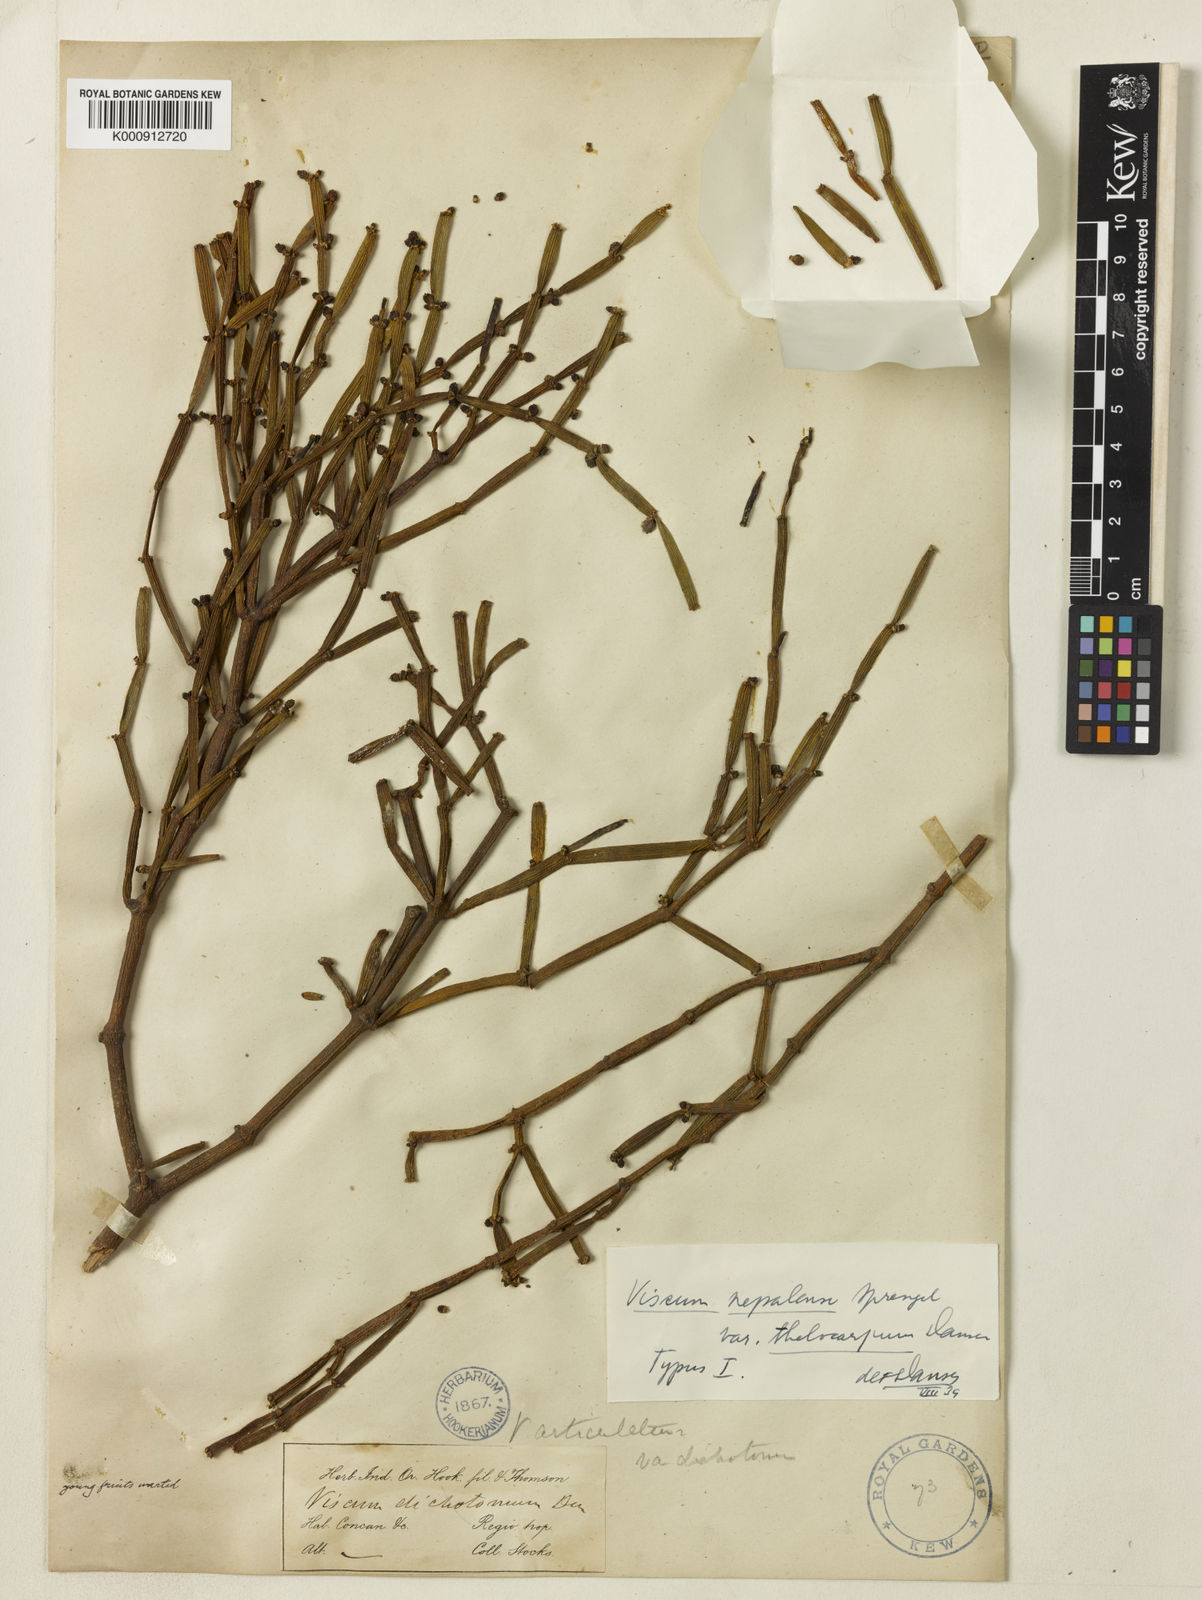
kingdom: Plantae
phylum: Tracheophyta
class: Magnoliopsida
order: Santalales
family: Viscaceae
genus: Viscum
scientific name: Viscum articulatum
